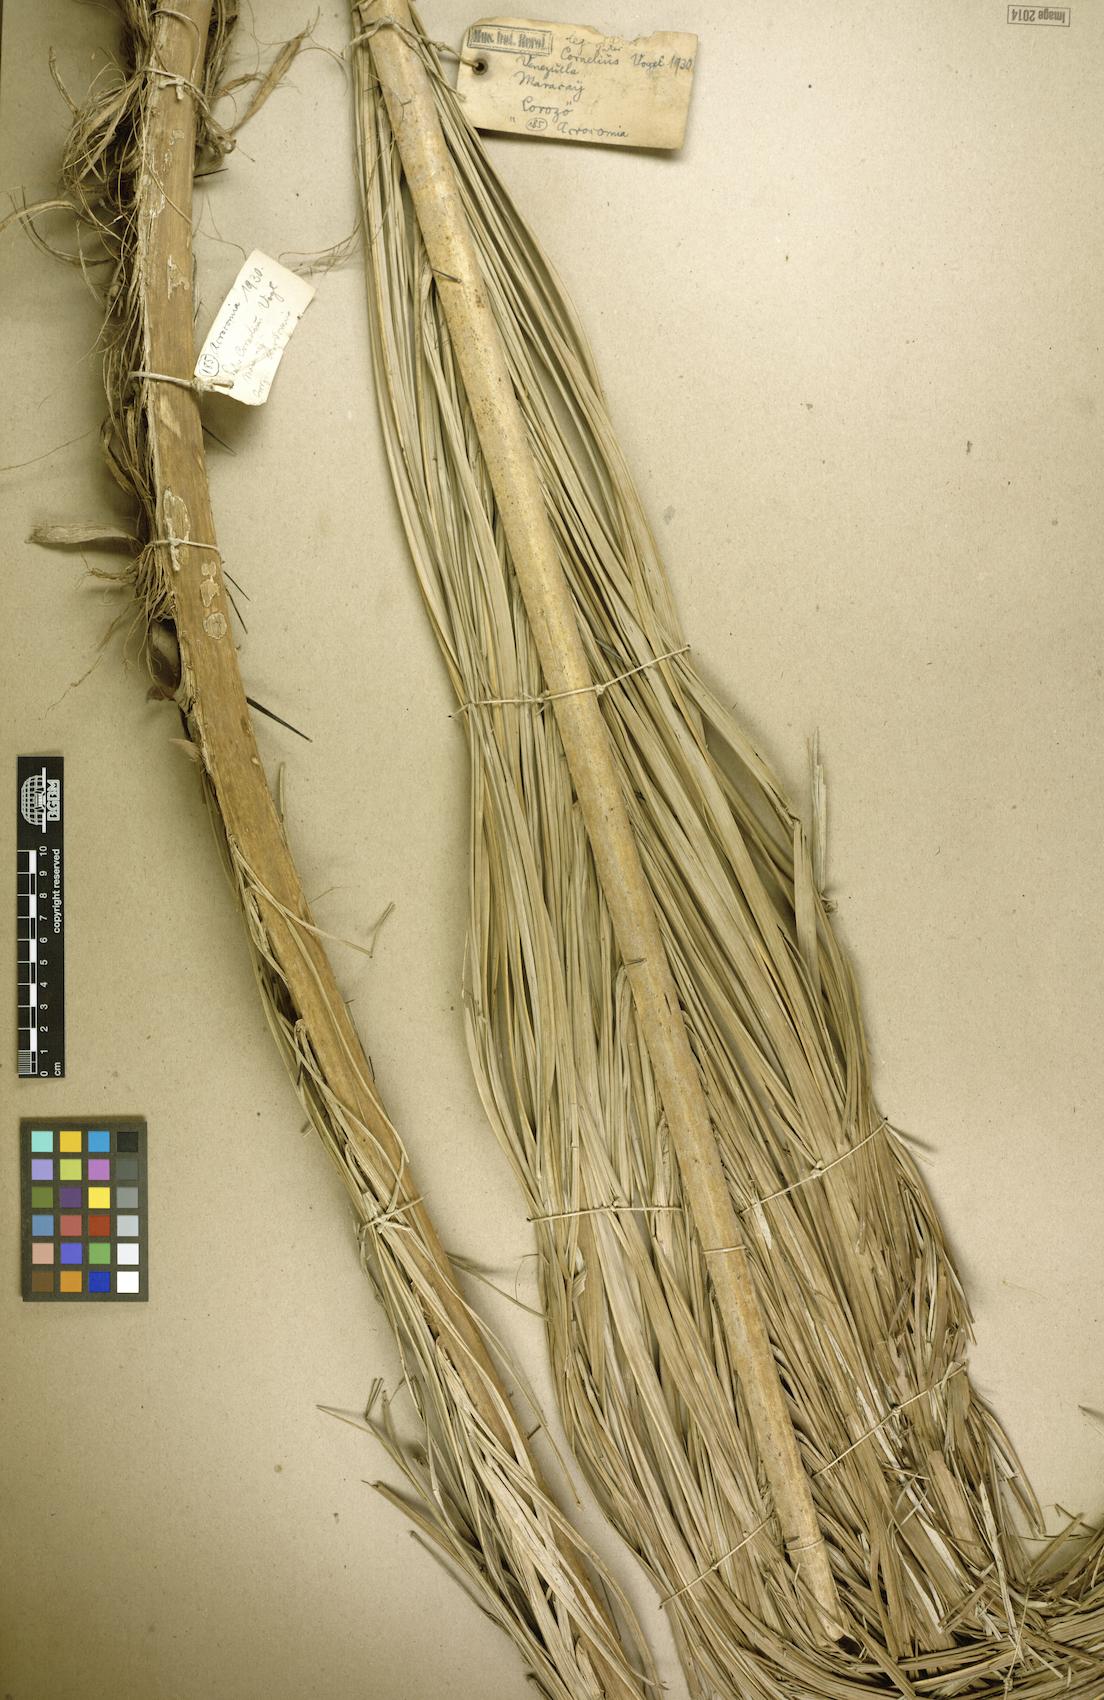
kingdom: Plantae
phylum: Tracheophyta
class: Liliopsida
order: Arecales
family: Arecaceae
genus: Acrocomia
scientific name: Acrocomia aculeata
